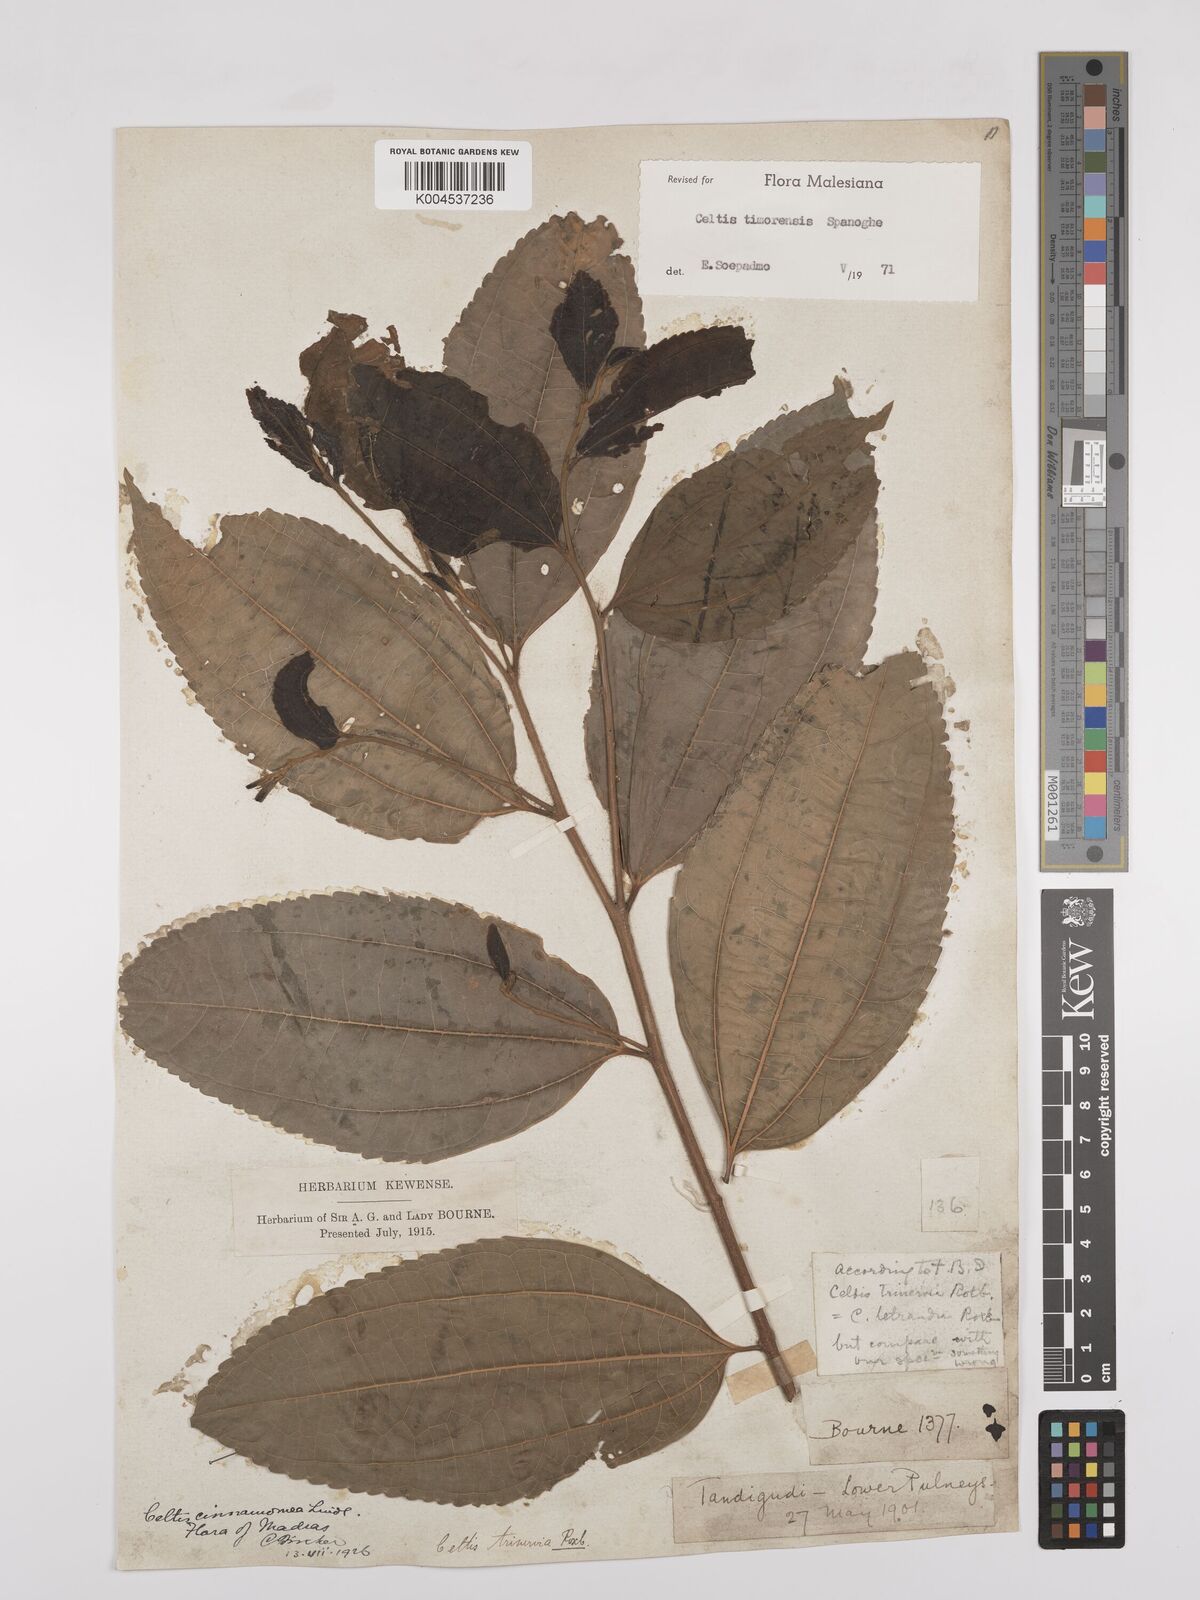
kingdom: Plantae
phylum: Tracheophyta
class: Magnoliopsida
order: Rosales
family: Cannabaceae
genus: Celtis
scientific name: Celtis timorensis
